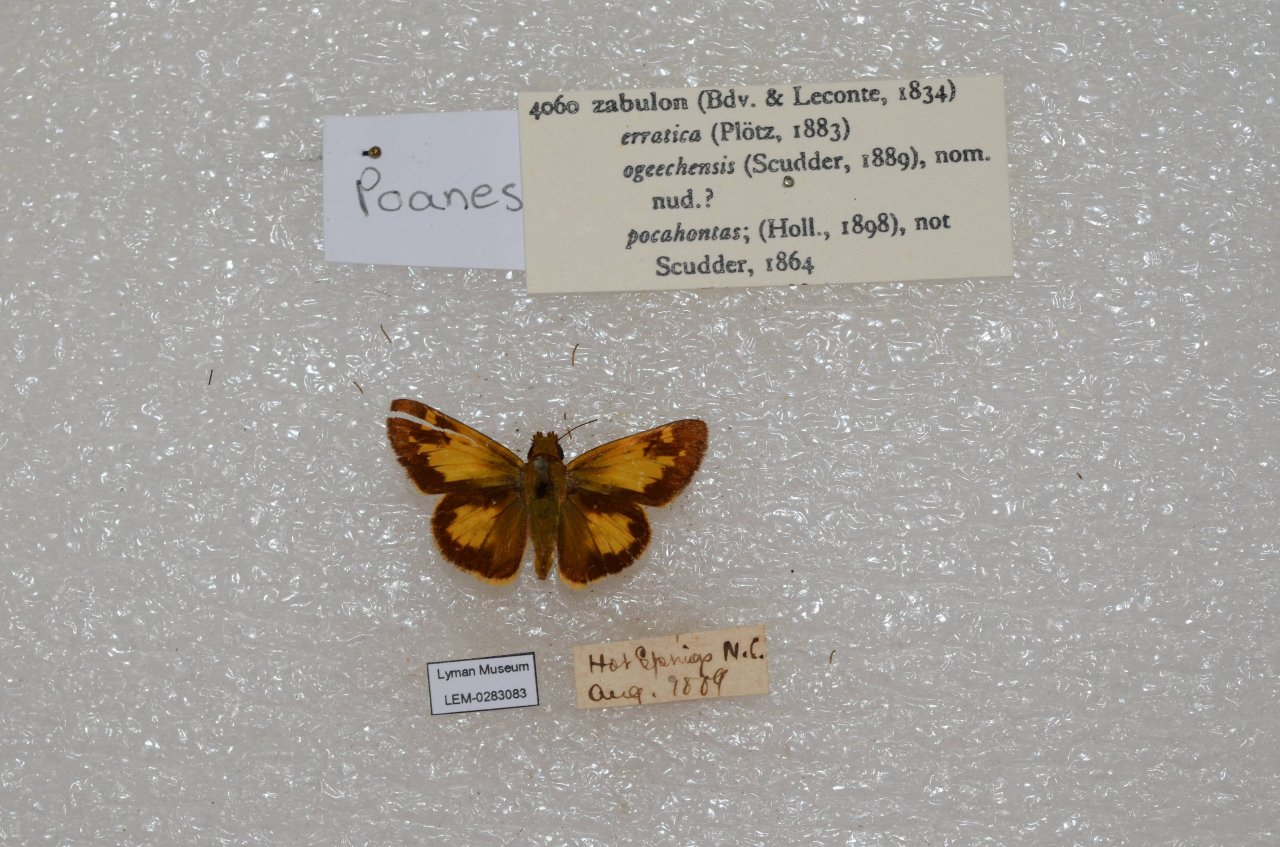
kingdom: Animalia
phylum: Arthropoda
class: Insecta
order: Lepidoptera
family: Hesperiidae
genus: Lon
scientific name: Lon zabulon
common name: Zabulon Skipper
